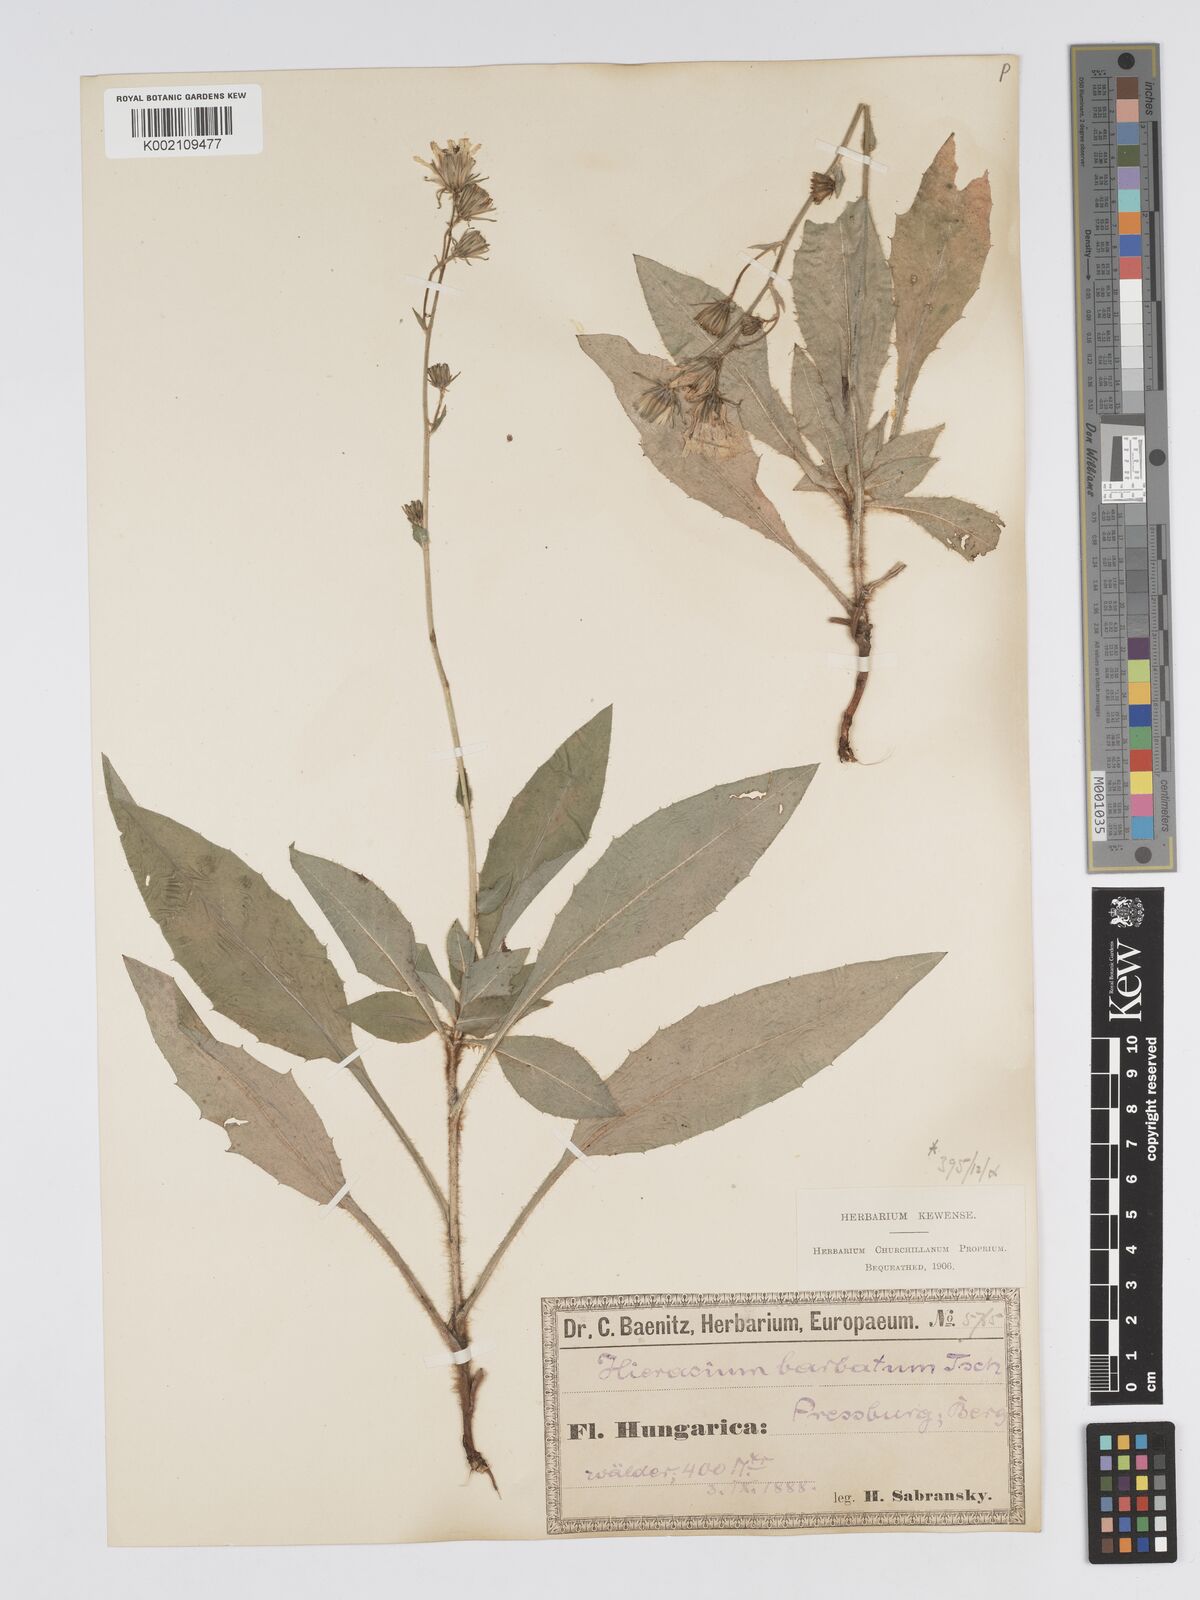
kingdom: Plantae
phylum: Tracheophyta
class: Magnoliopsida
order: Asterales
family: Asteraceae
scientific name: Asteraceae
